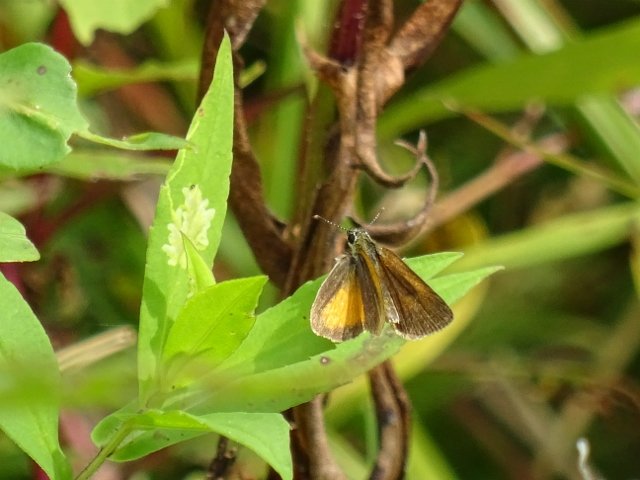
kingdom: Animalia
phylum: Arthropoda
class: Insecta
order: Lepidoptera
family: Hesperiidae
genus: Ancyloxypha
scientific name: Ancyloxypha numitor
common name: Least Skipper
